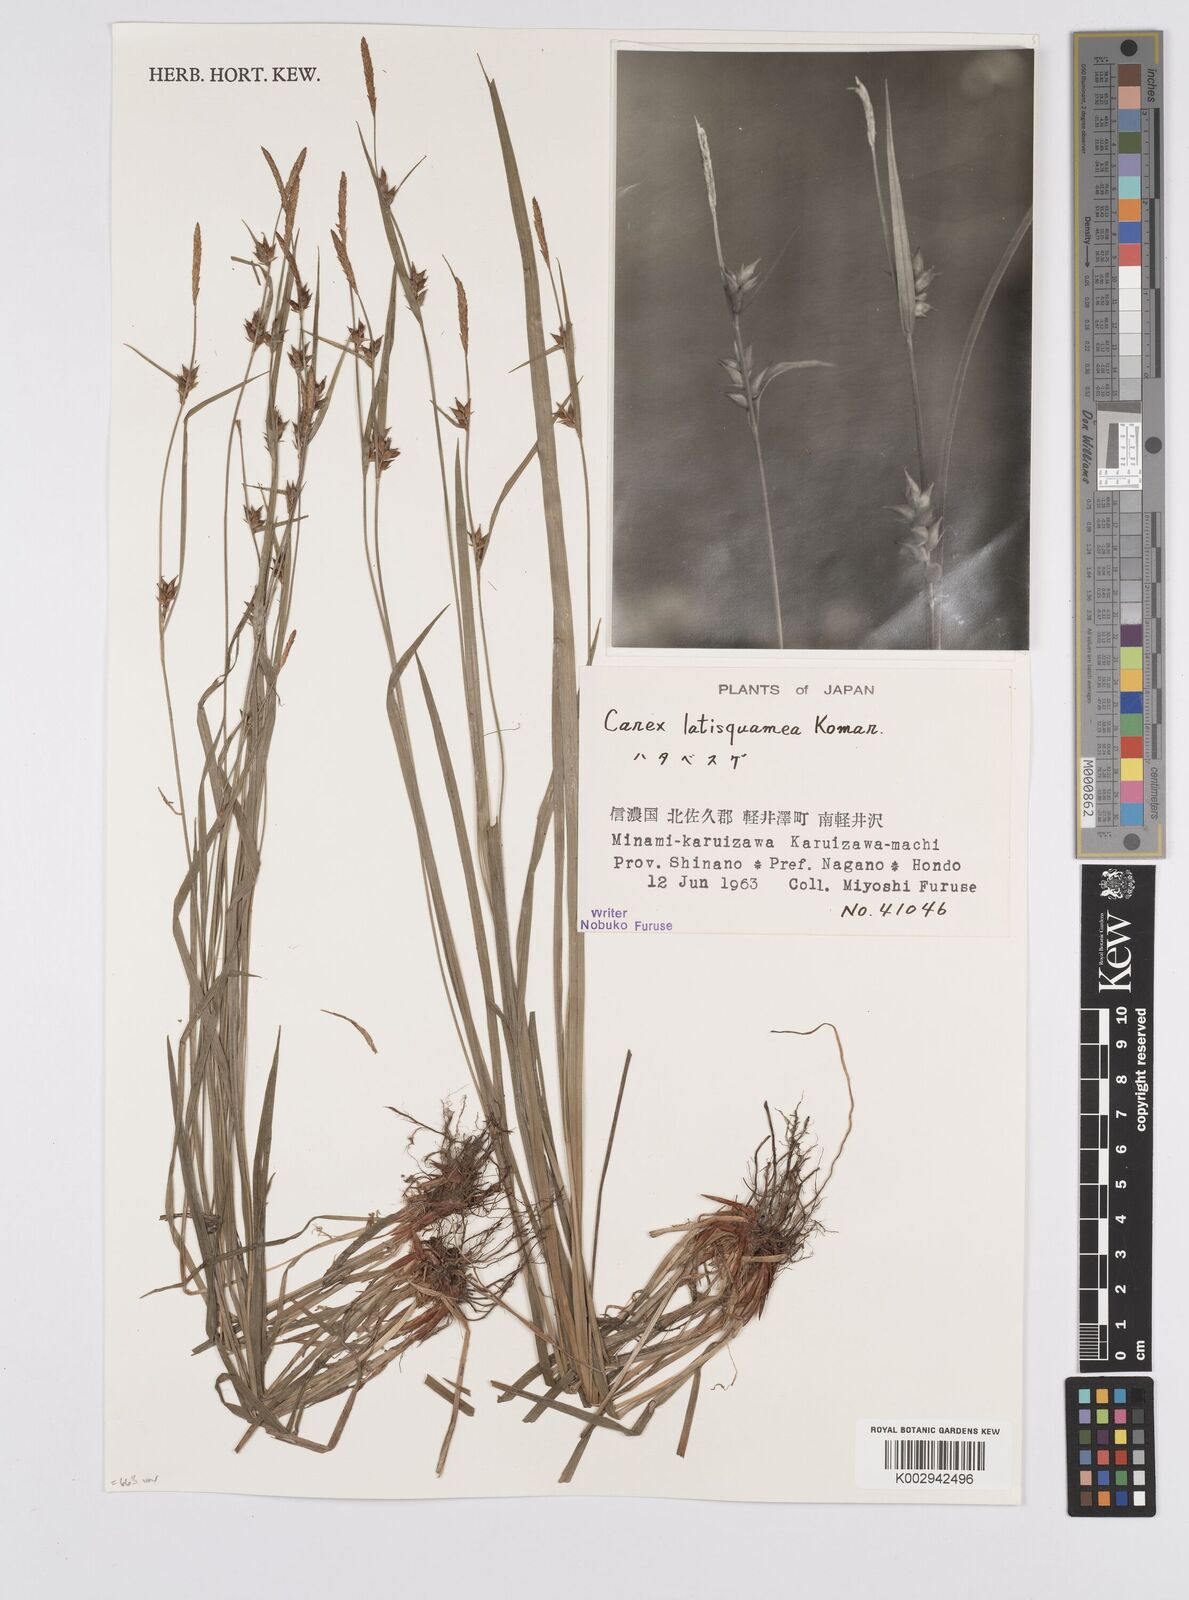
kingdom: Plantae
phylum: Tracheophyta
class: Liliopsida
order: Poales
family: Cyperaceae
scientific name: Cyperaceae
